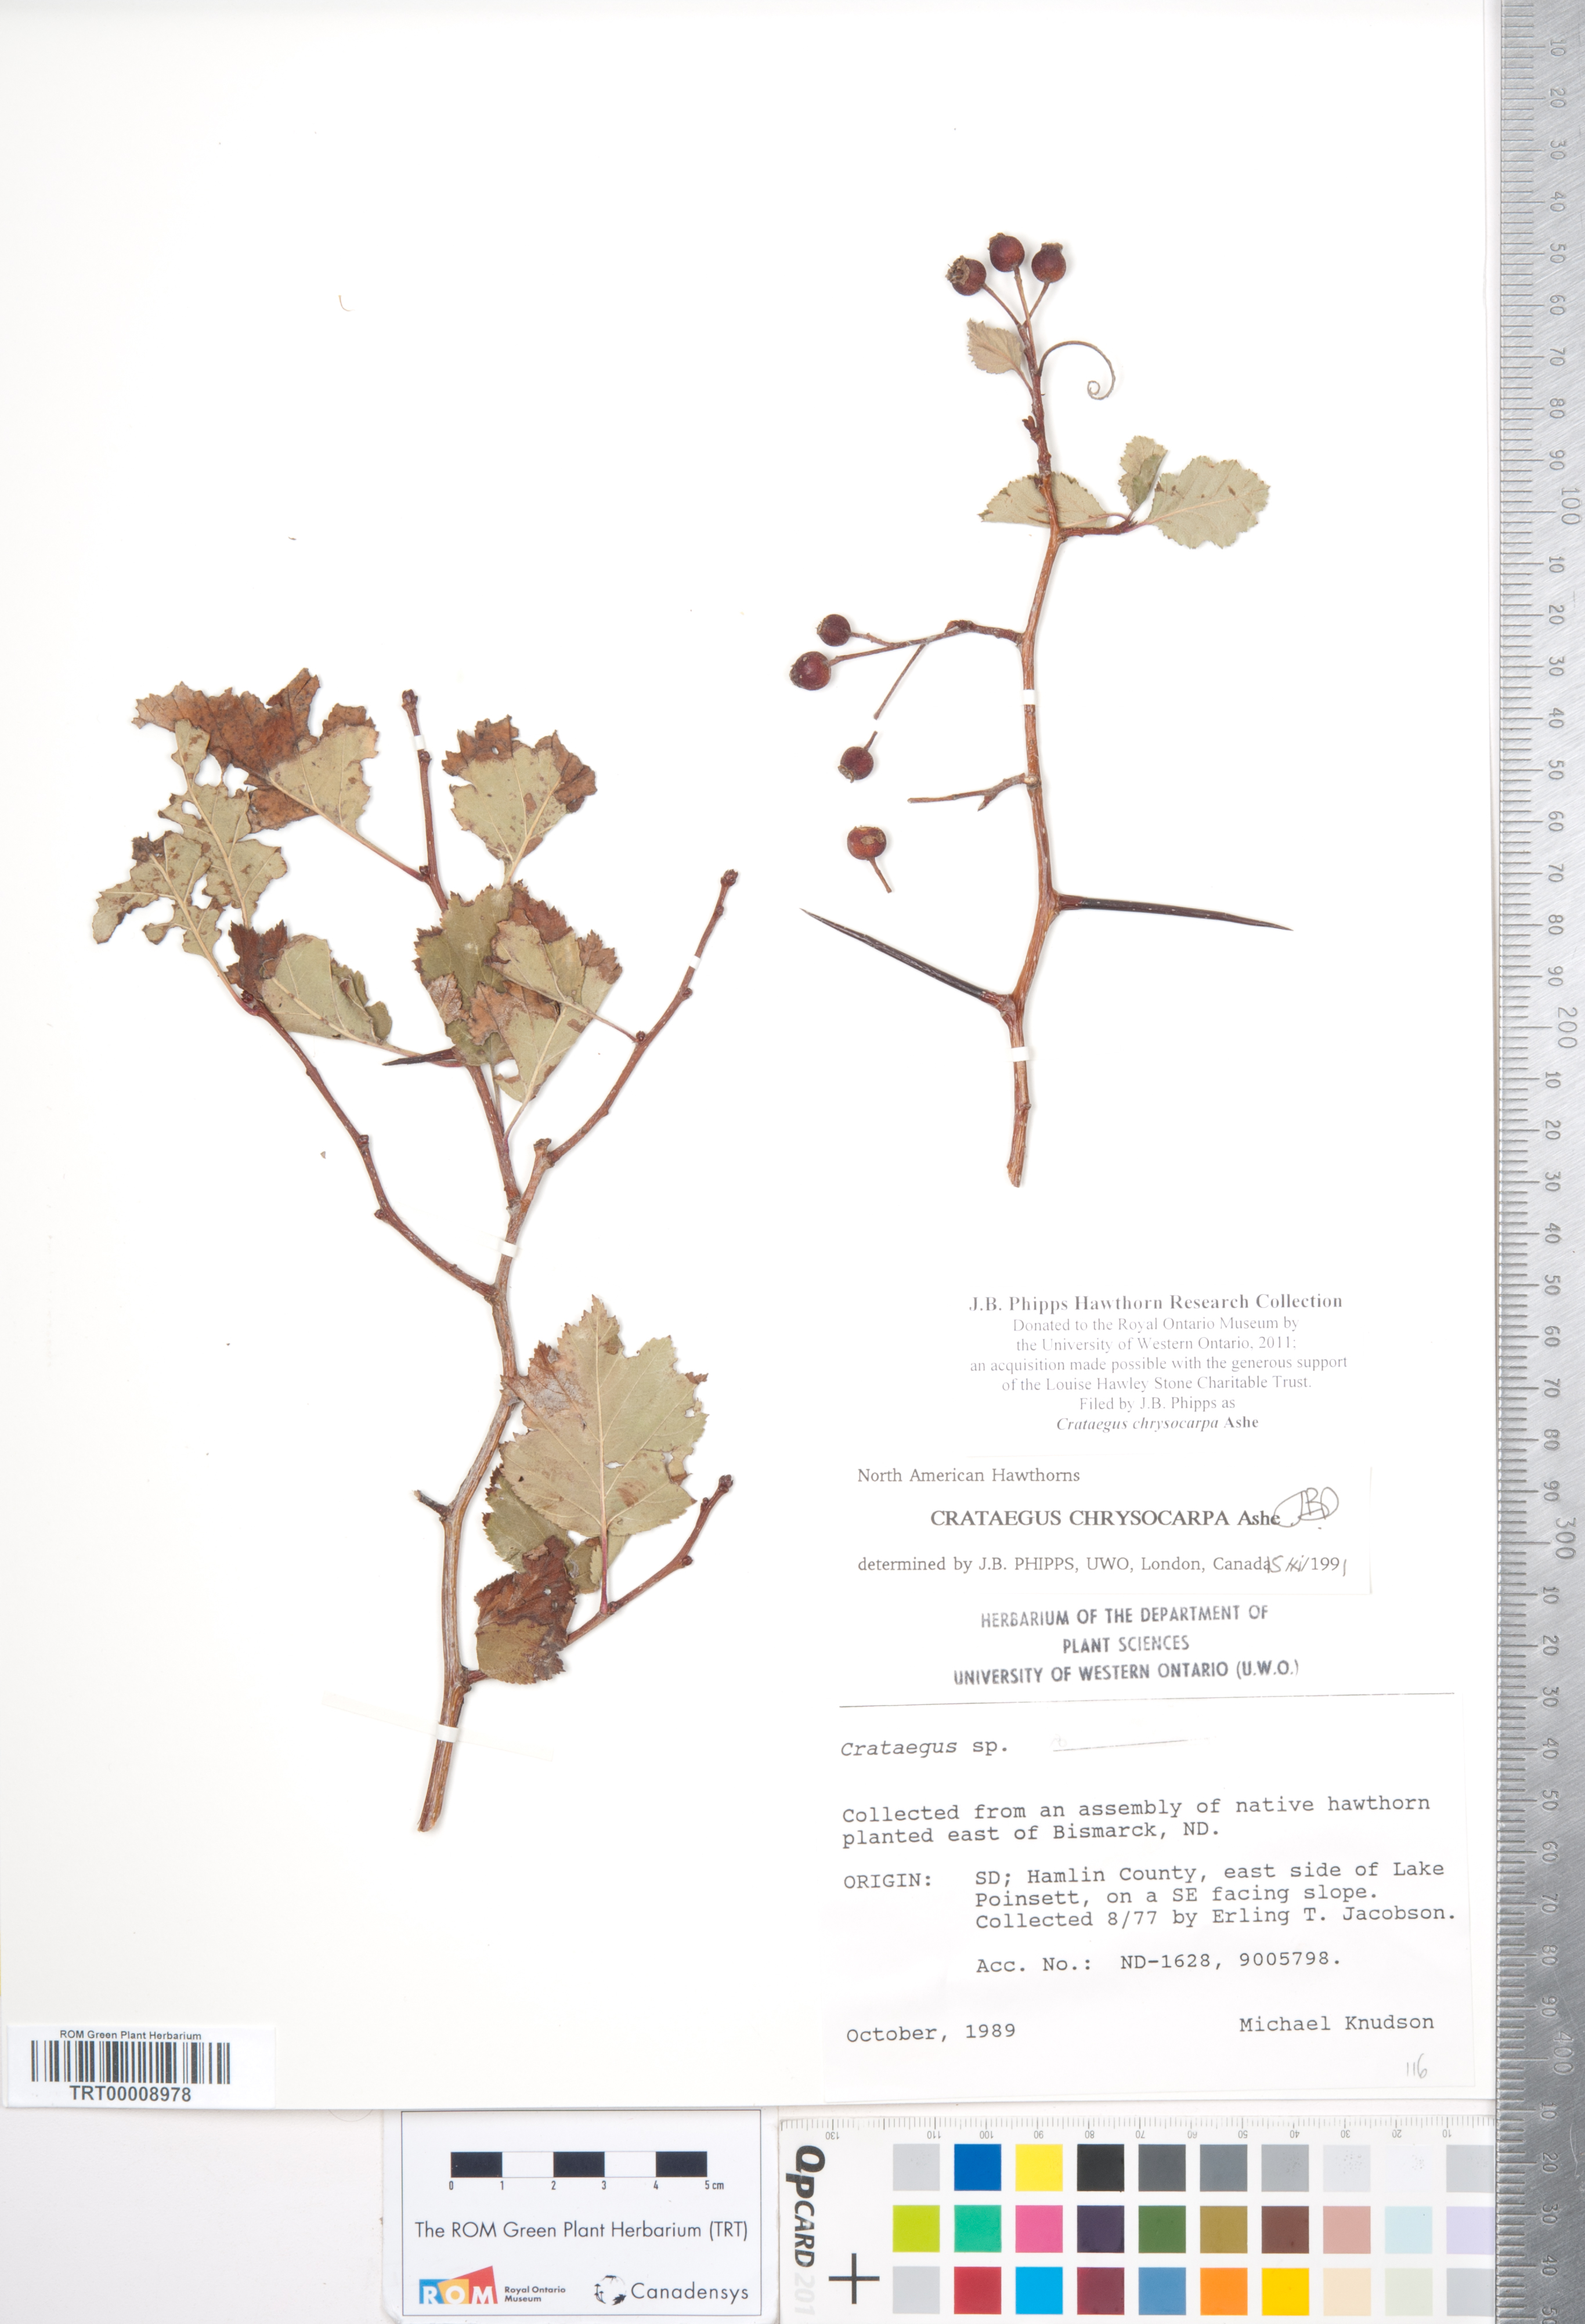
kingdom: Plantae
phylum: Tracheophyta
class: Magnoliopsida
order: Rosales
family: Rosaceae
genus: Crataegus
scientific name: Crataegus chrysocarpa
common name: Fire-berry hawthorn
